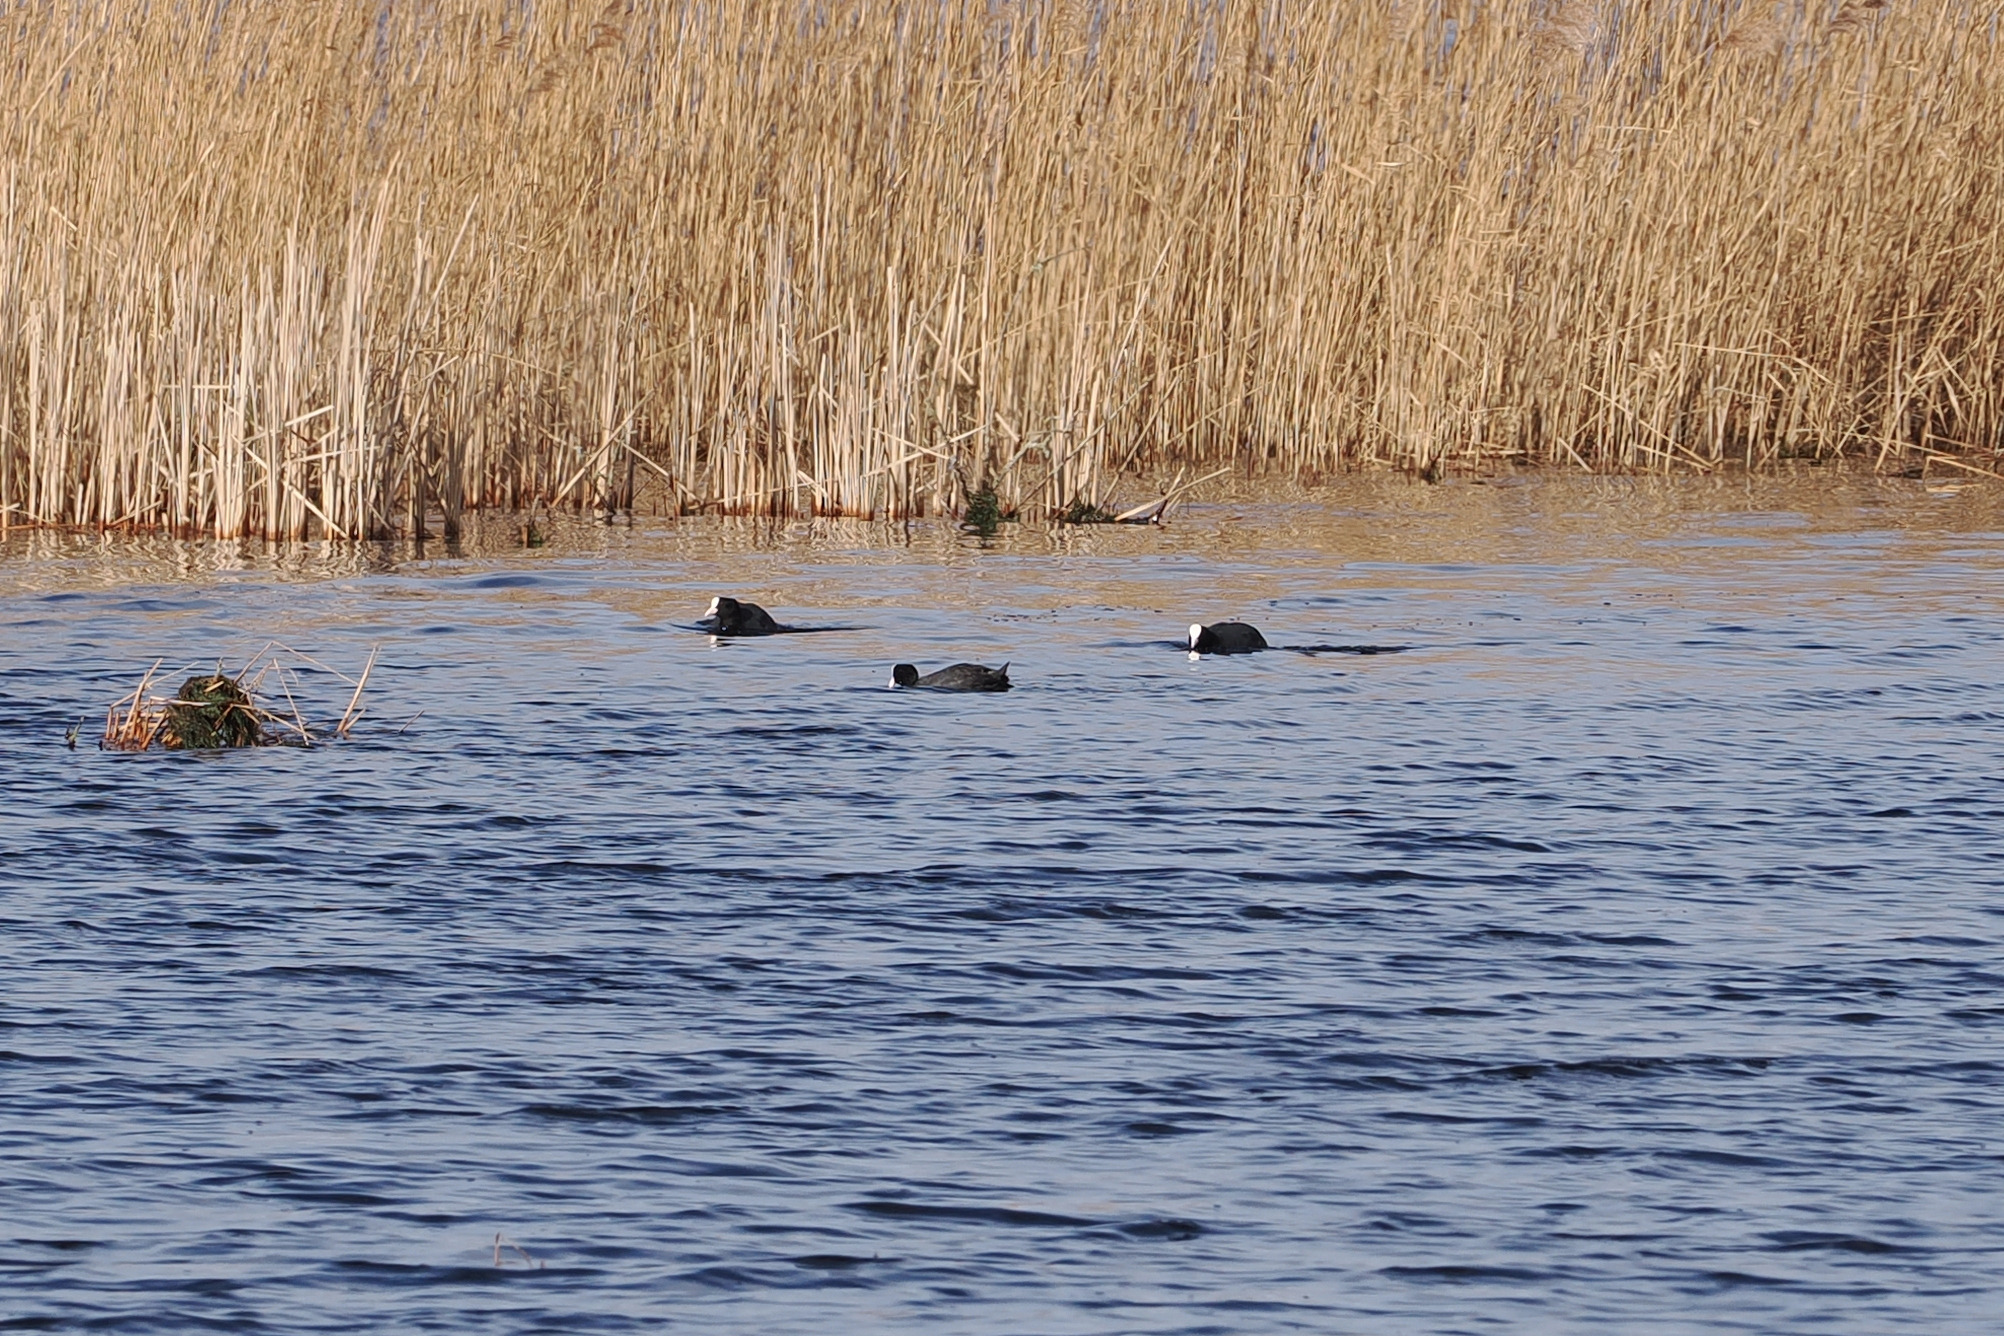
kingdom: Animalia
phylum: Chordata
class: Aves
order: Gruiformes
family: Rallidae
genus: Fulica
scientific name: Fulica atra
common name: Blishøne
